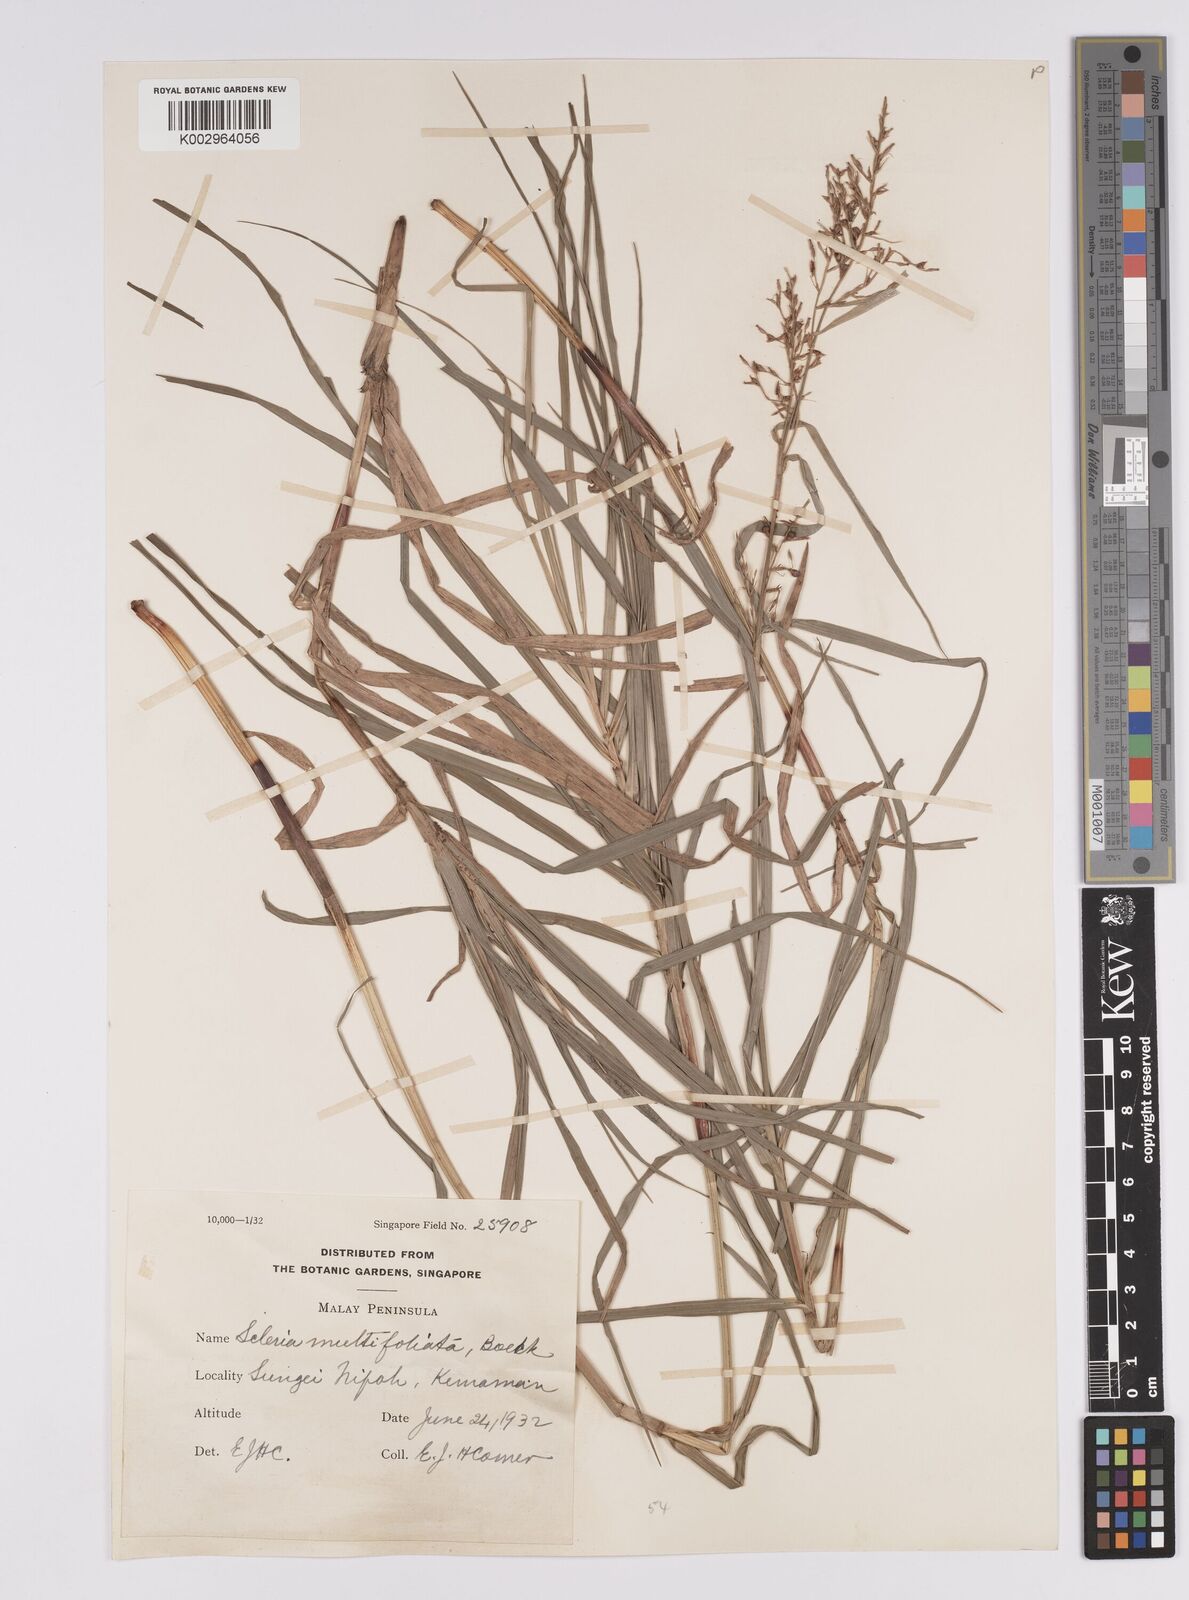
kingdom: Plantae
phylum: Tracheophyta
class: Liliopsida
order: Poales
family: Cyperaceae
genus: Scleria
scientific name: Scleria purpurascens
